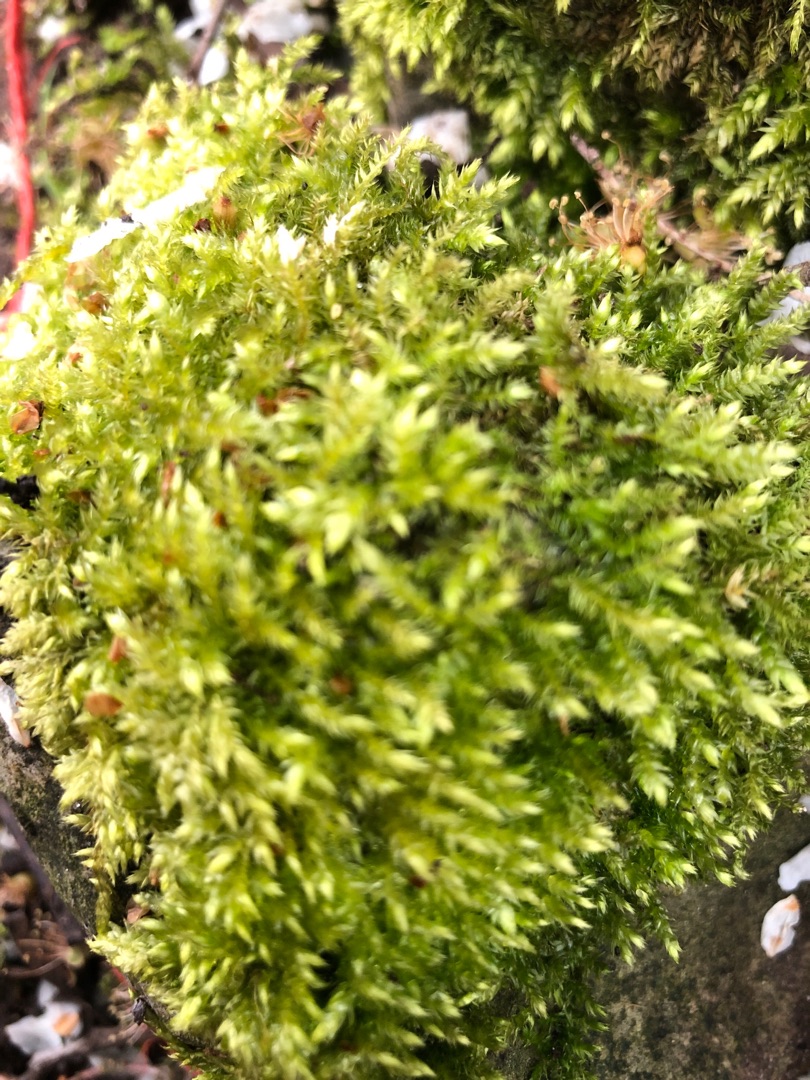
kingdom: Plantae
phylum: Bryophyta
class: Bryopsida
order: Hypnales
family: Brachytheciaceae
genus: Brachythecium
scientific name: Brachythecium rutabulum
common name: Almindelig kortkapsel
